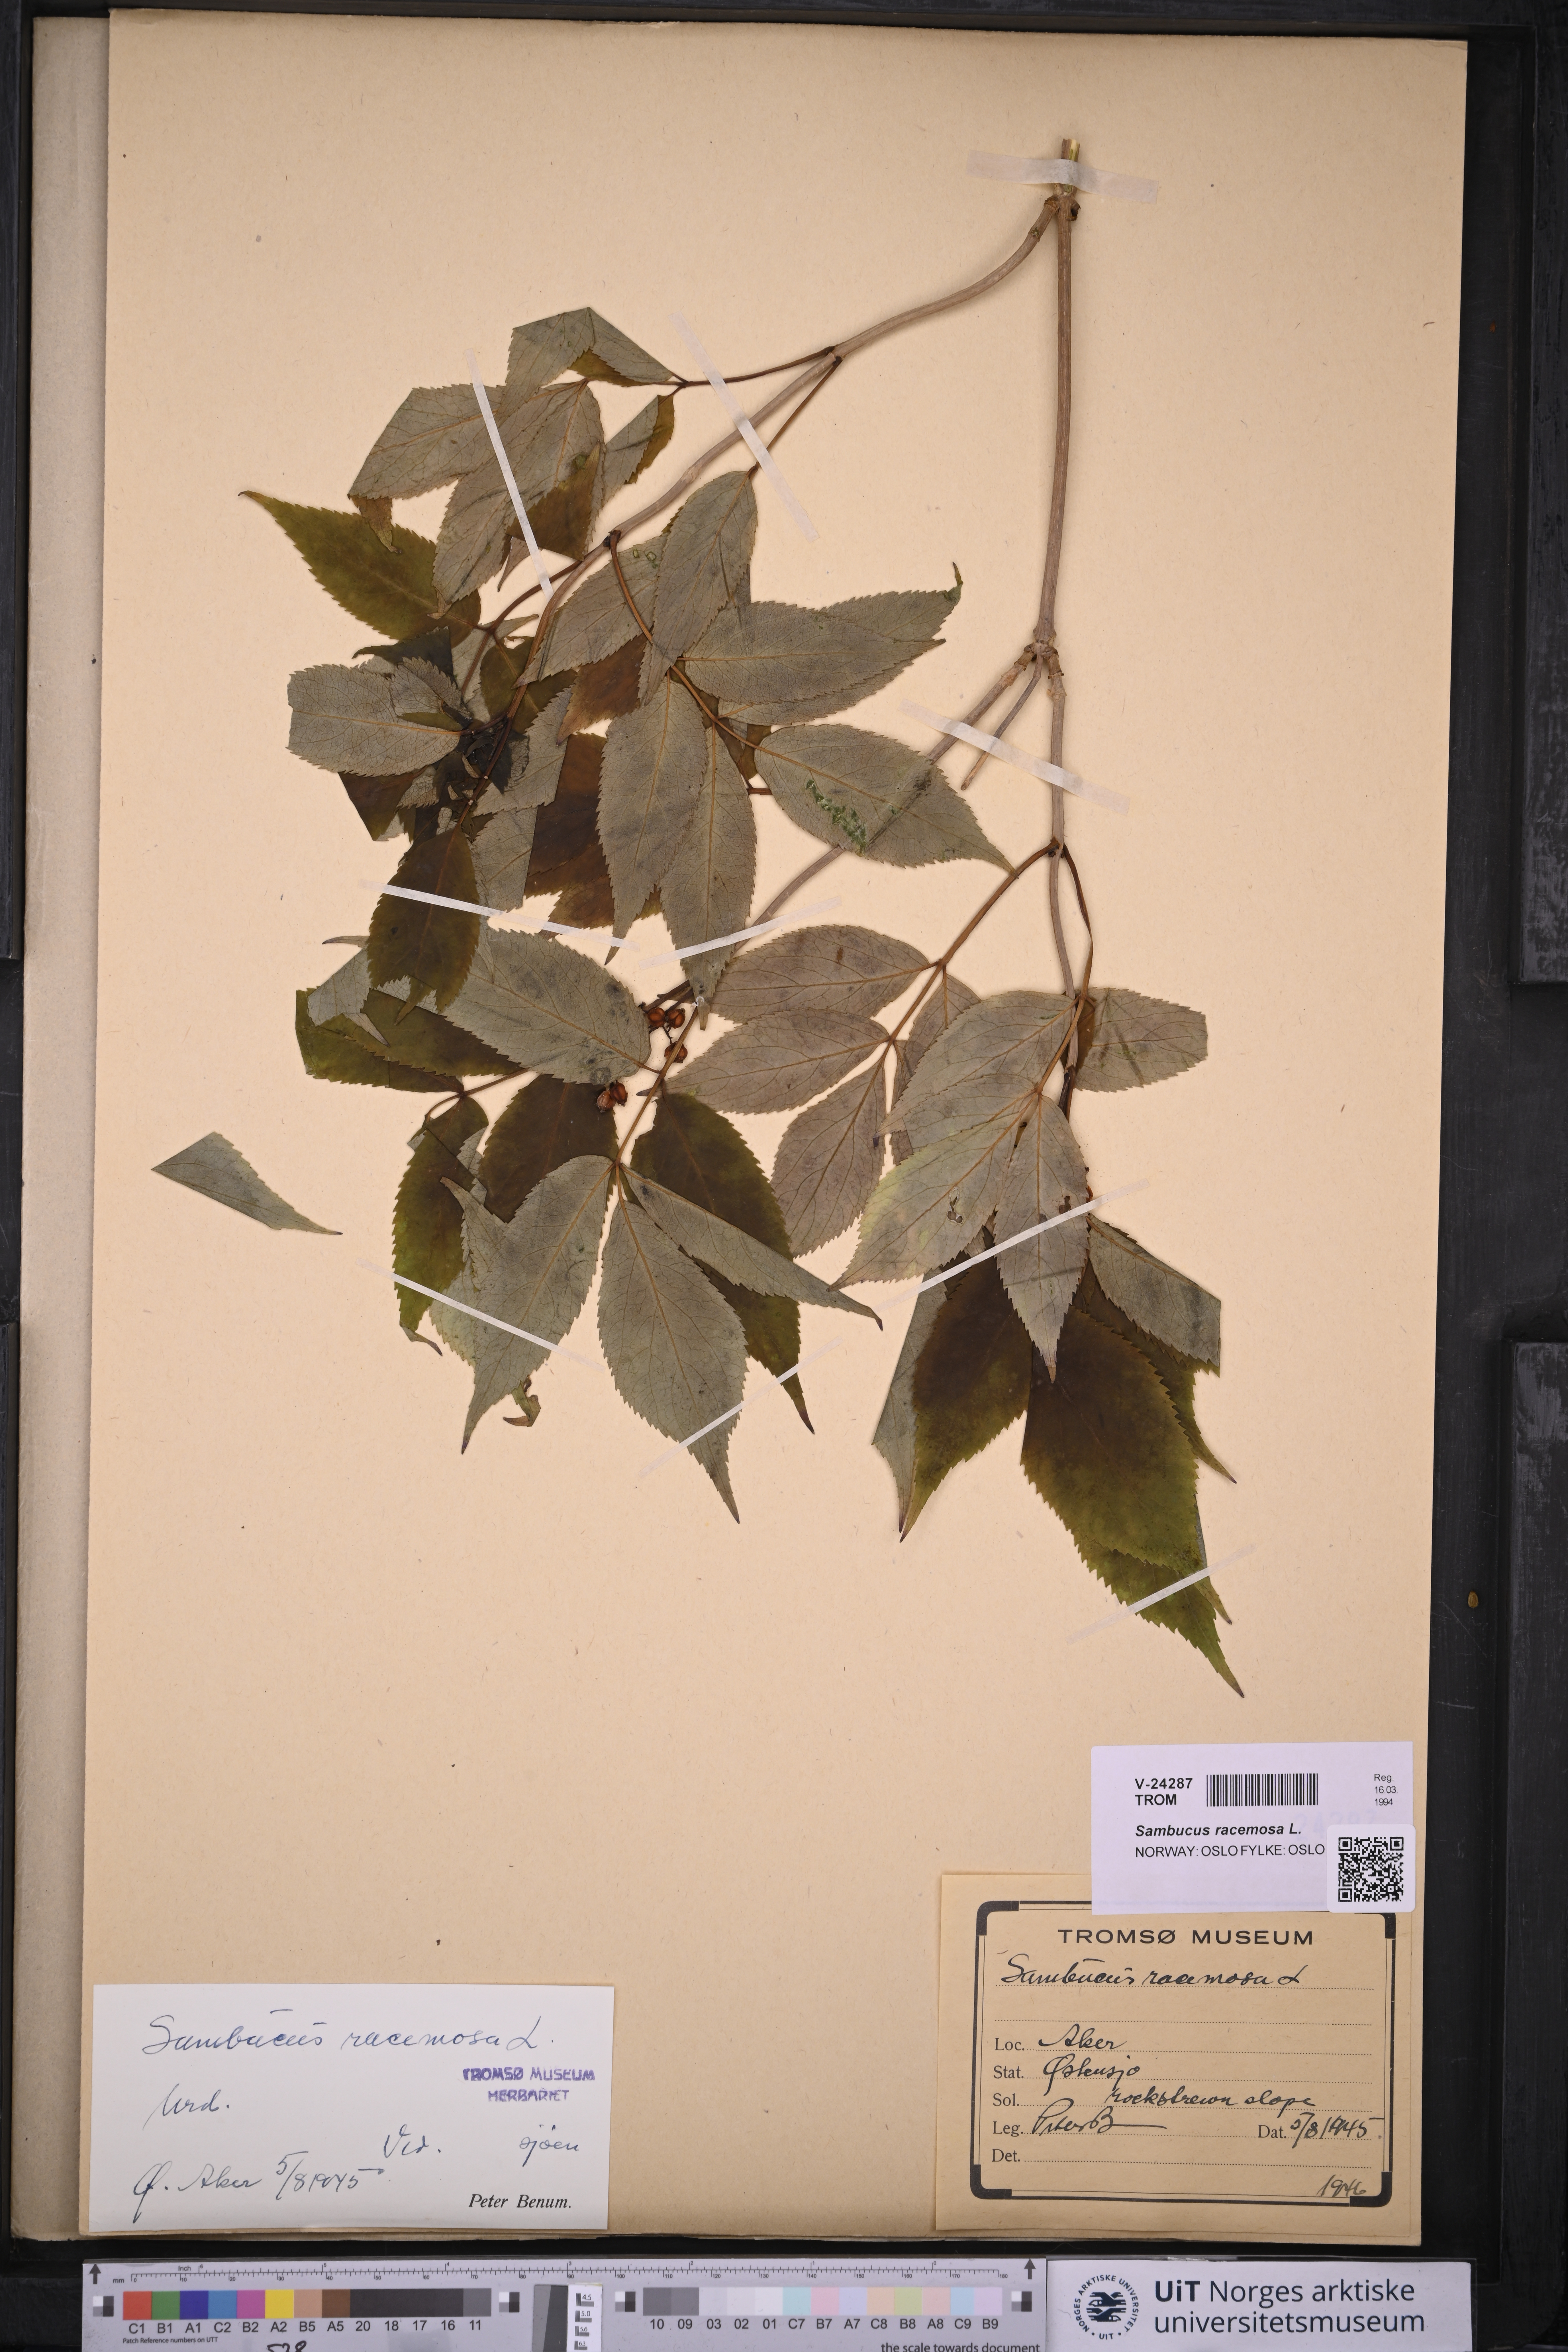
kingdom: Plantae
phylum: Tracheophyta
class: Magnoliopsida
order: Dipsacales
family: Viburnaceae
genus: Sambucus
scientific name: Sambucus racemosa
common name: Red-berried elder
